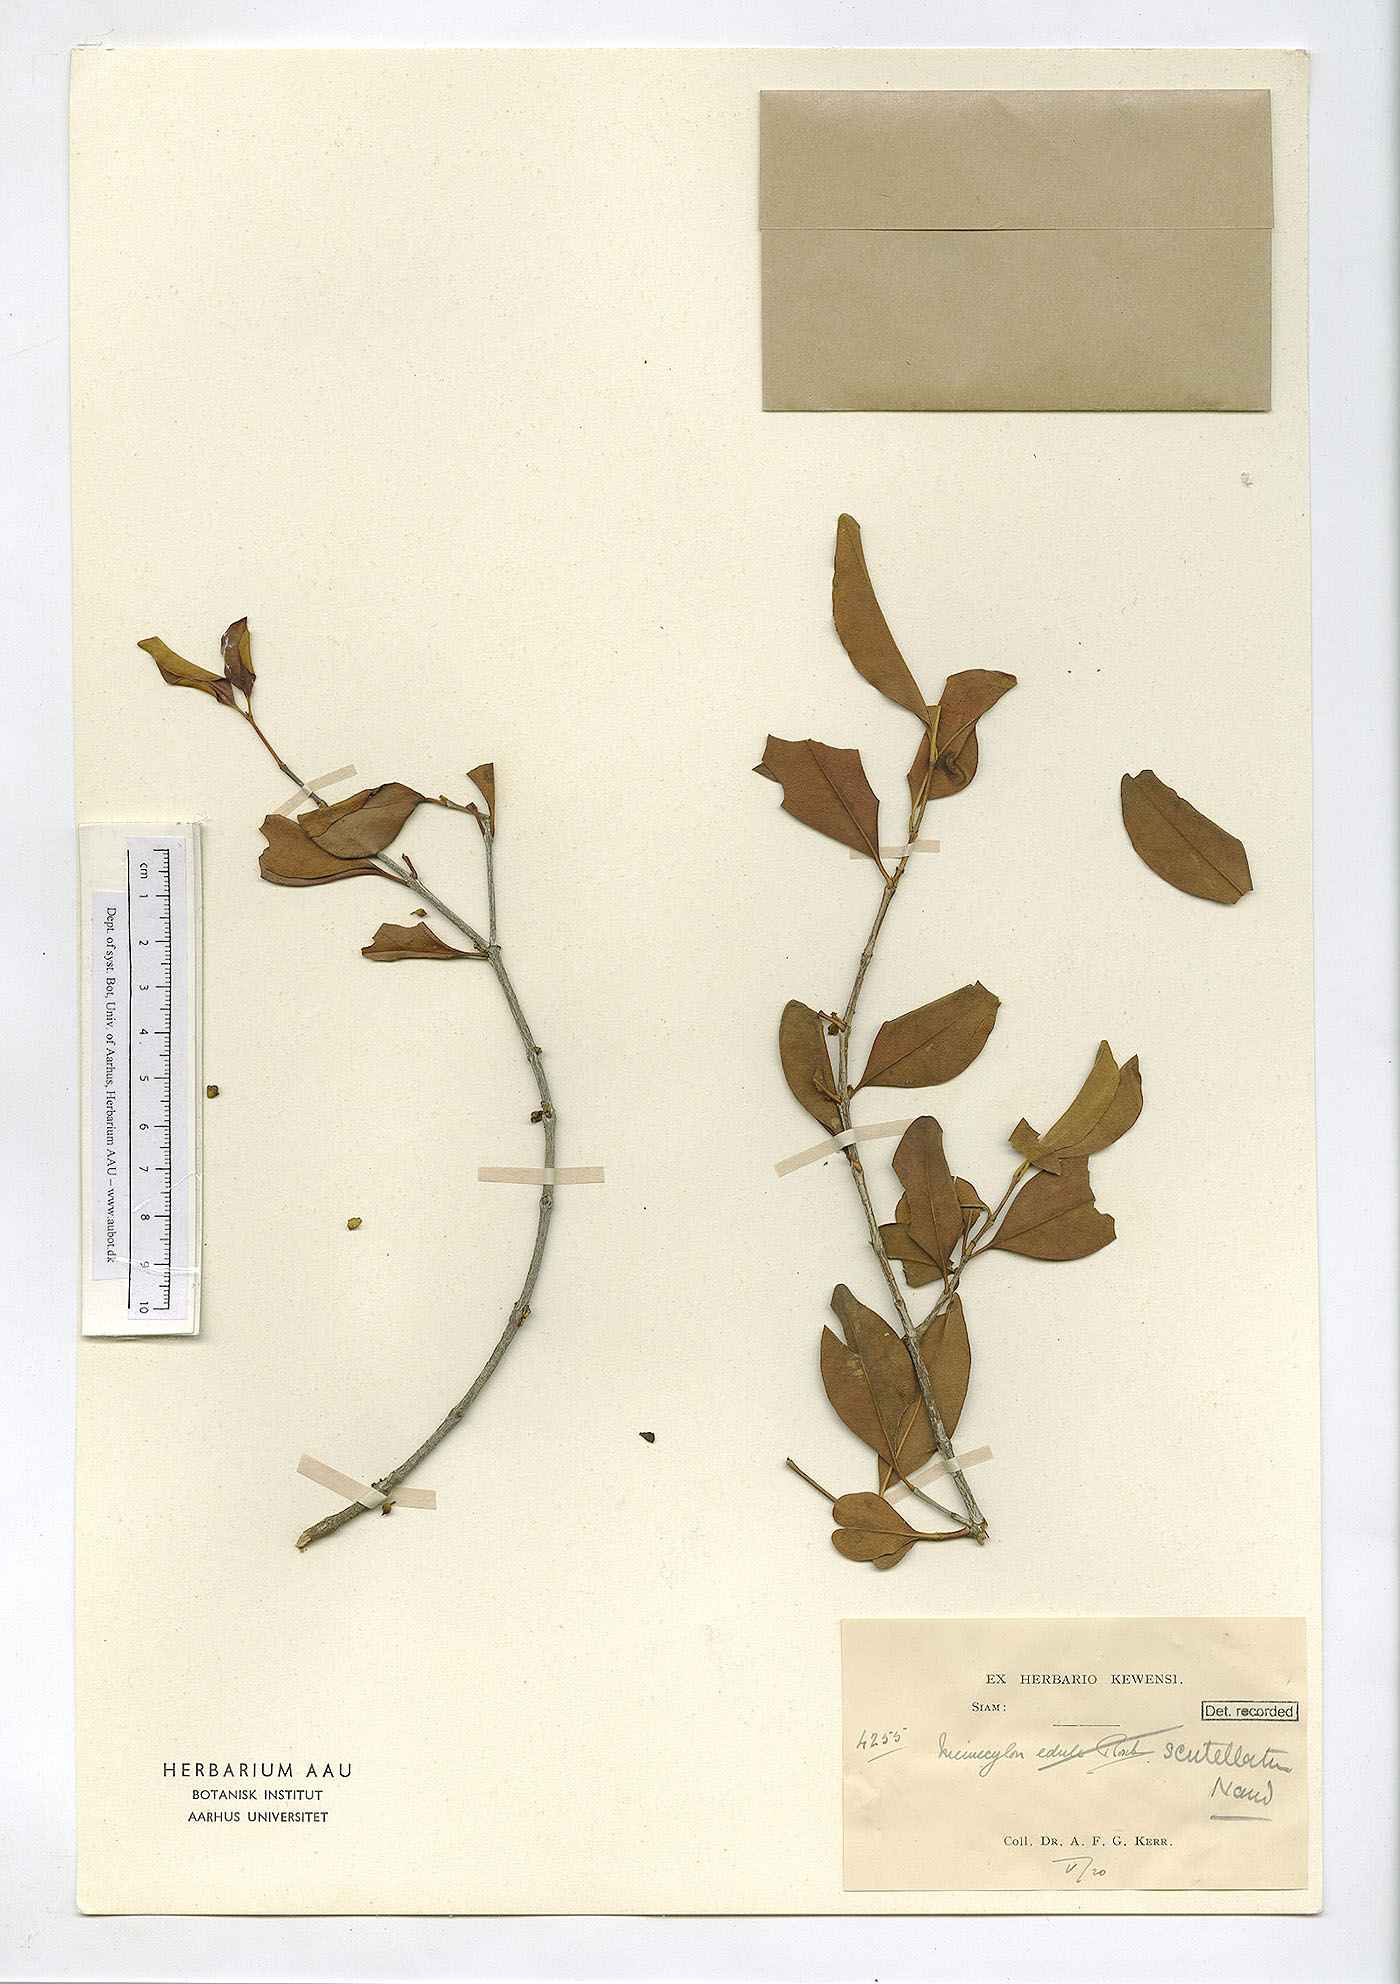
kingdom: Plantae
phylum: Tracheophyta
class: Magnoliopsida
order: Myrtales
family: Melastomataceae
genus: Memecylon
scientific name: Memecylon scutellatum
